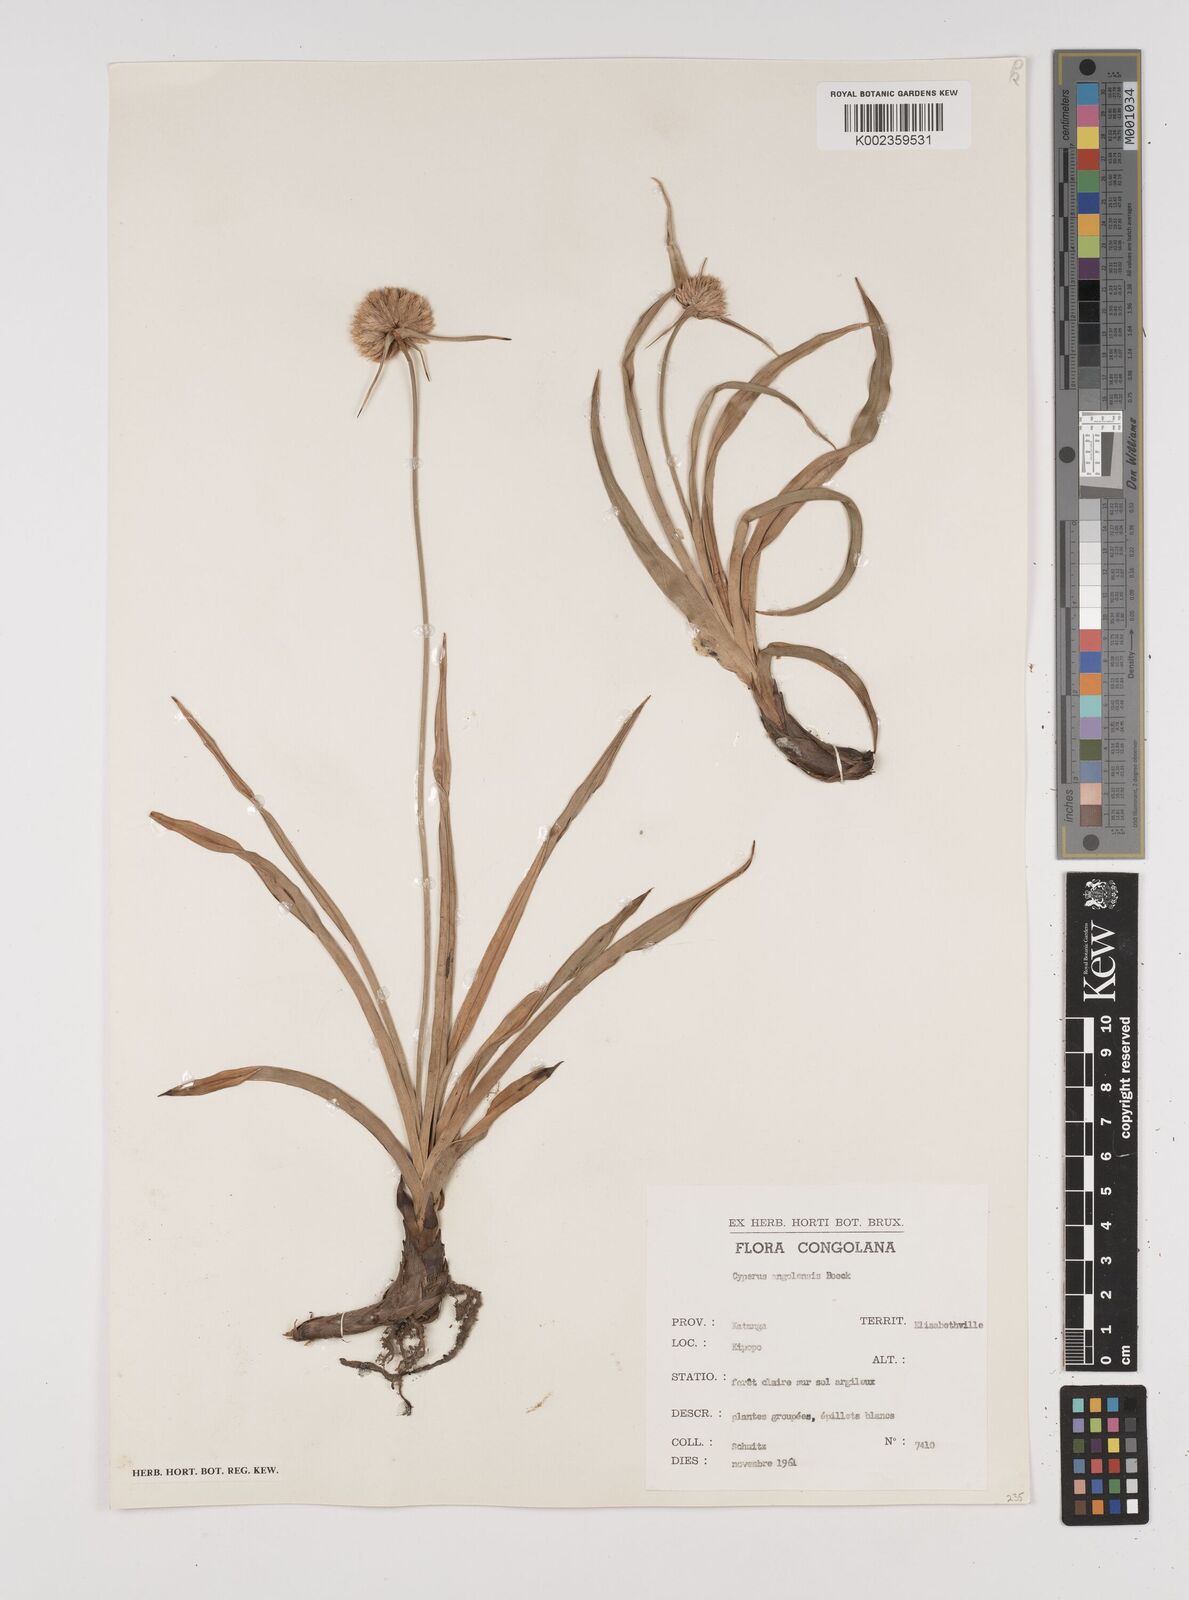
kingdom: Plantae
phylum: Tracheophyta
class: Liliopsida
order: Poales
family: Cyperaceae
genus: Cyperus
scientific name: Cyperus angolensis
